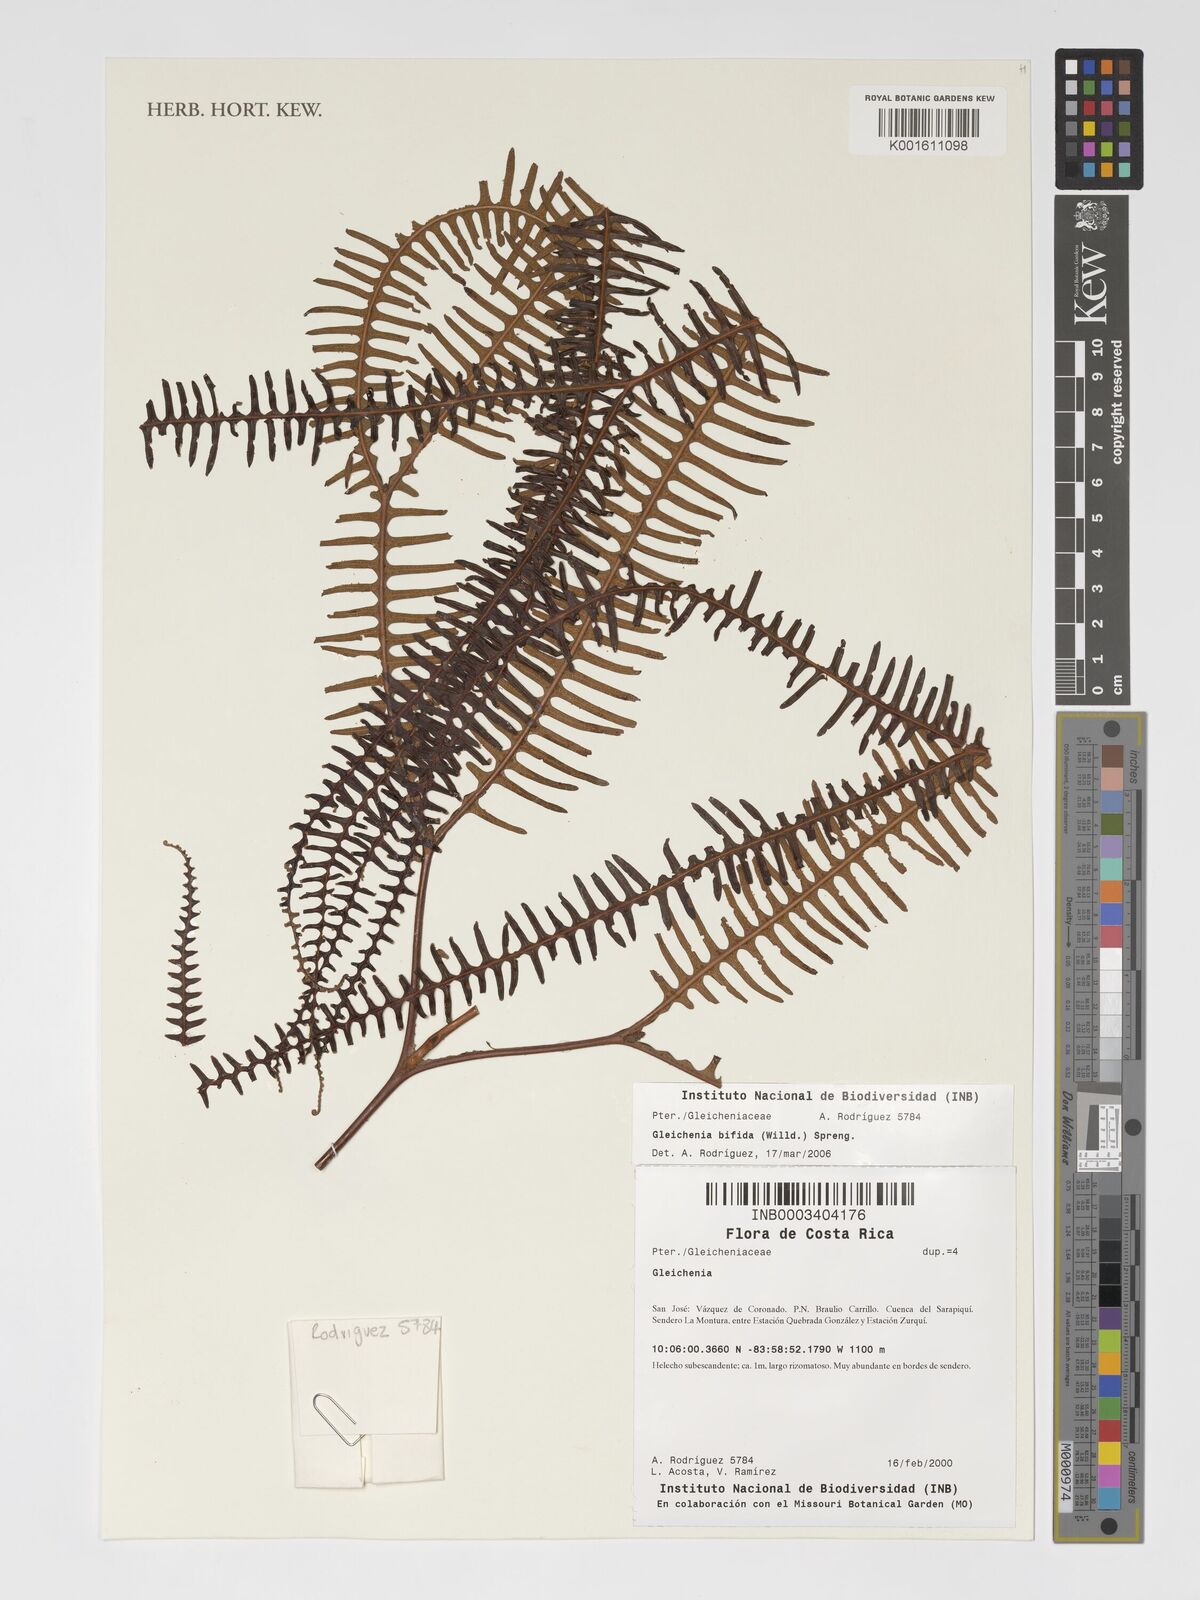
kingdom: Plantae
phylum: Tracheophyta
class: Polypodiopsida
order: Gleicheniales
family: Gleicheniaceae
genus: Sticherus
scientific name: Sticherus bifidus
